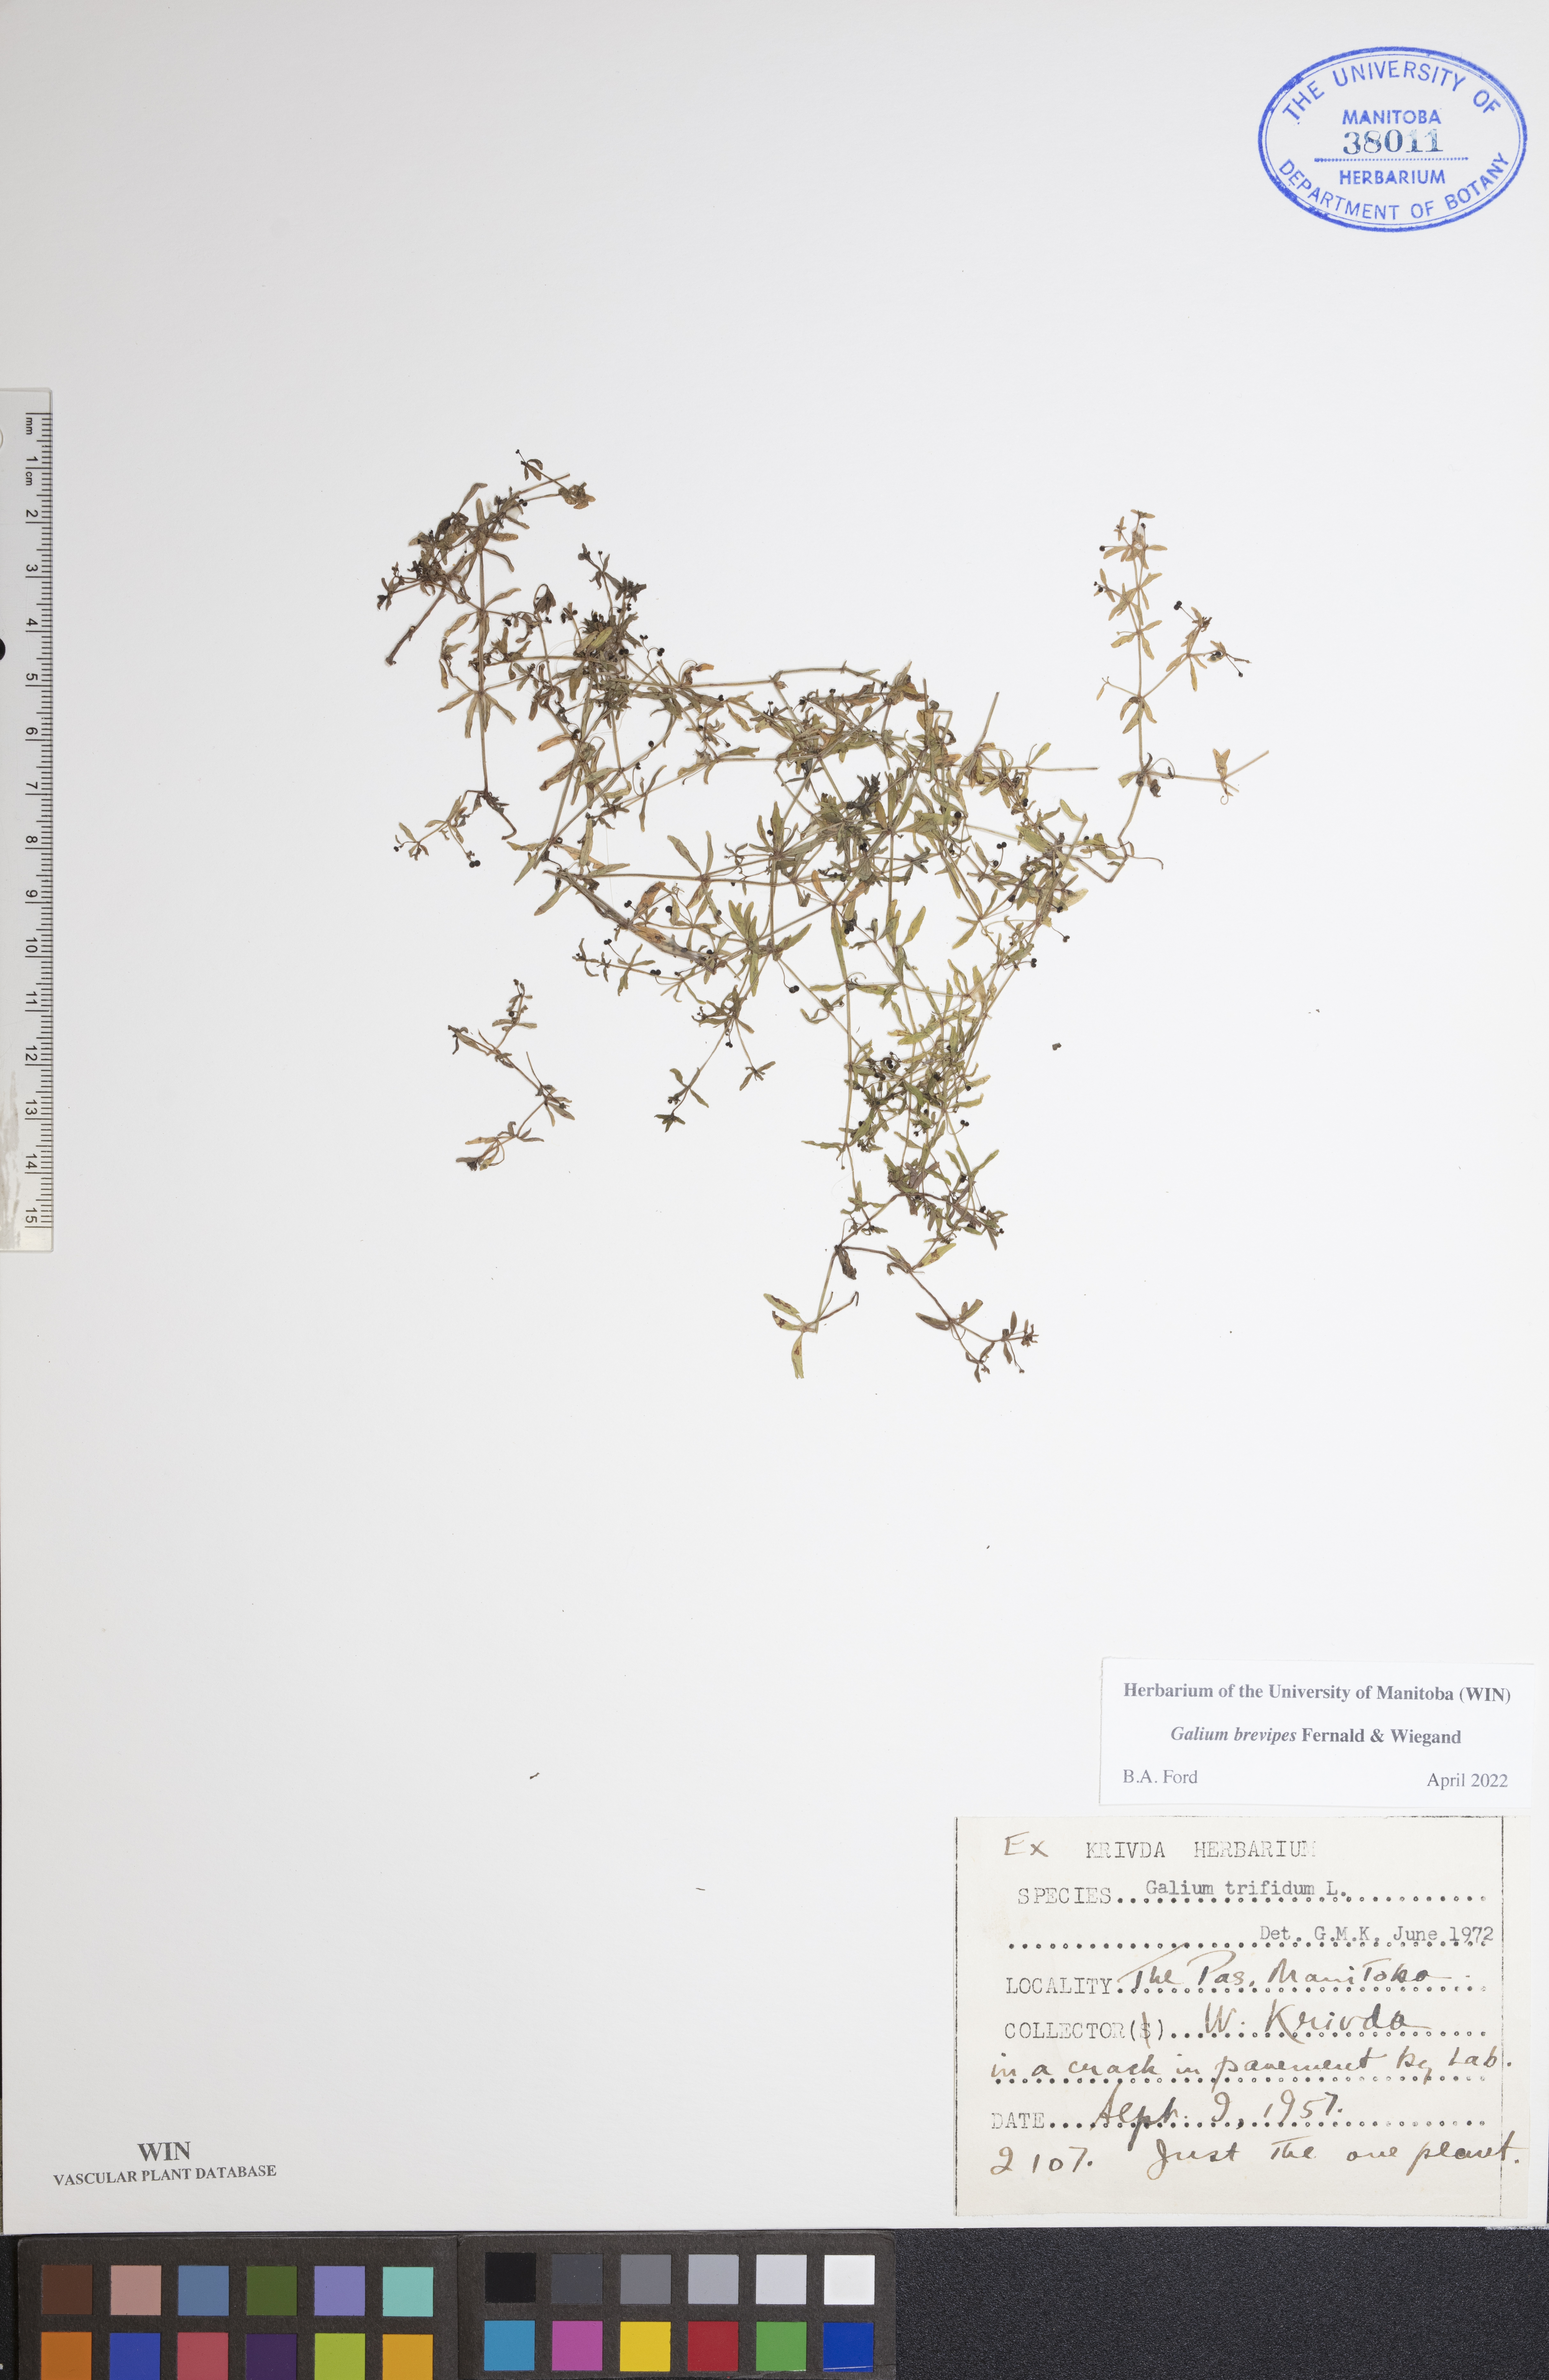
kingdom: Plantae
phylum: Tracheophyta
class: Magnoliopsida
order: Gentianales
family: Rubiaceae
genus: Galium
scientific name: Galium domingense
